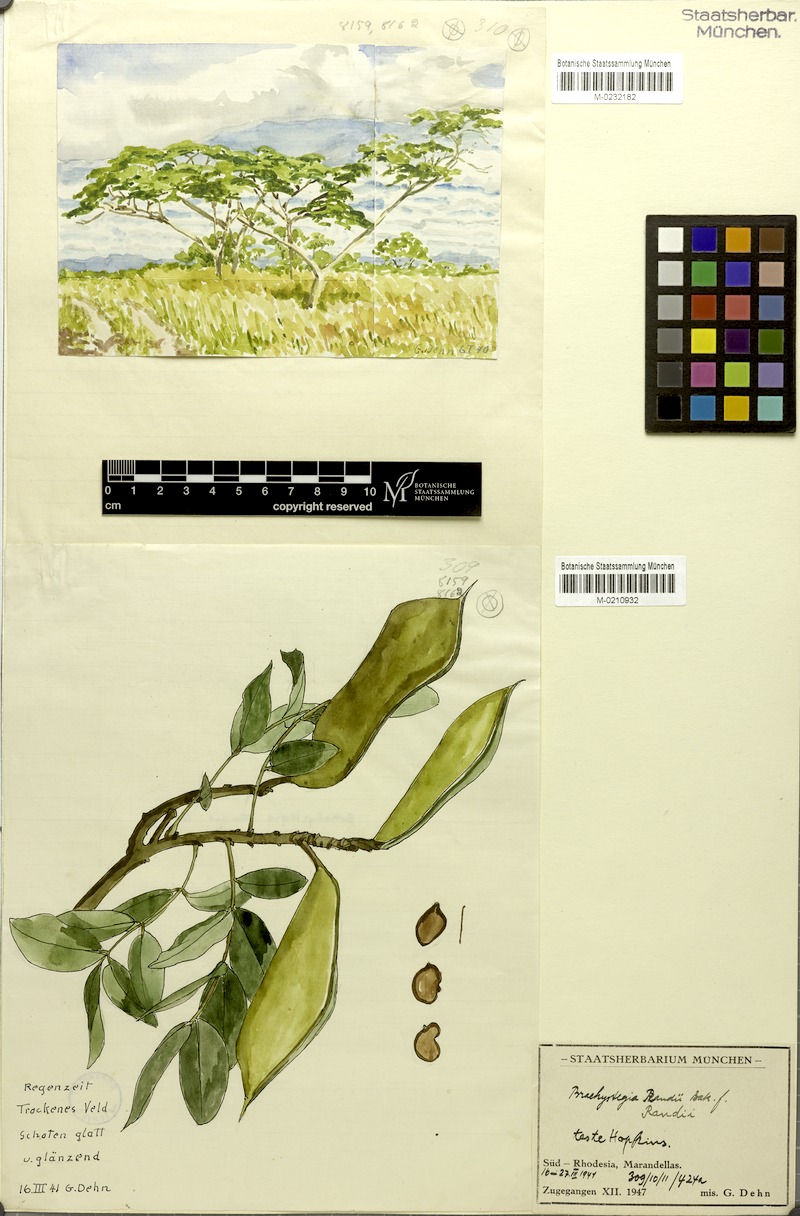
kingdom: Plantae
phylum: Tracheophyta
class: Magnoliopsida
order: Fabales
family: Fabaceae
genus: Brachystegia
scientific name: Brachystegia spiciformis
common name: Zebrawood
